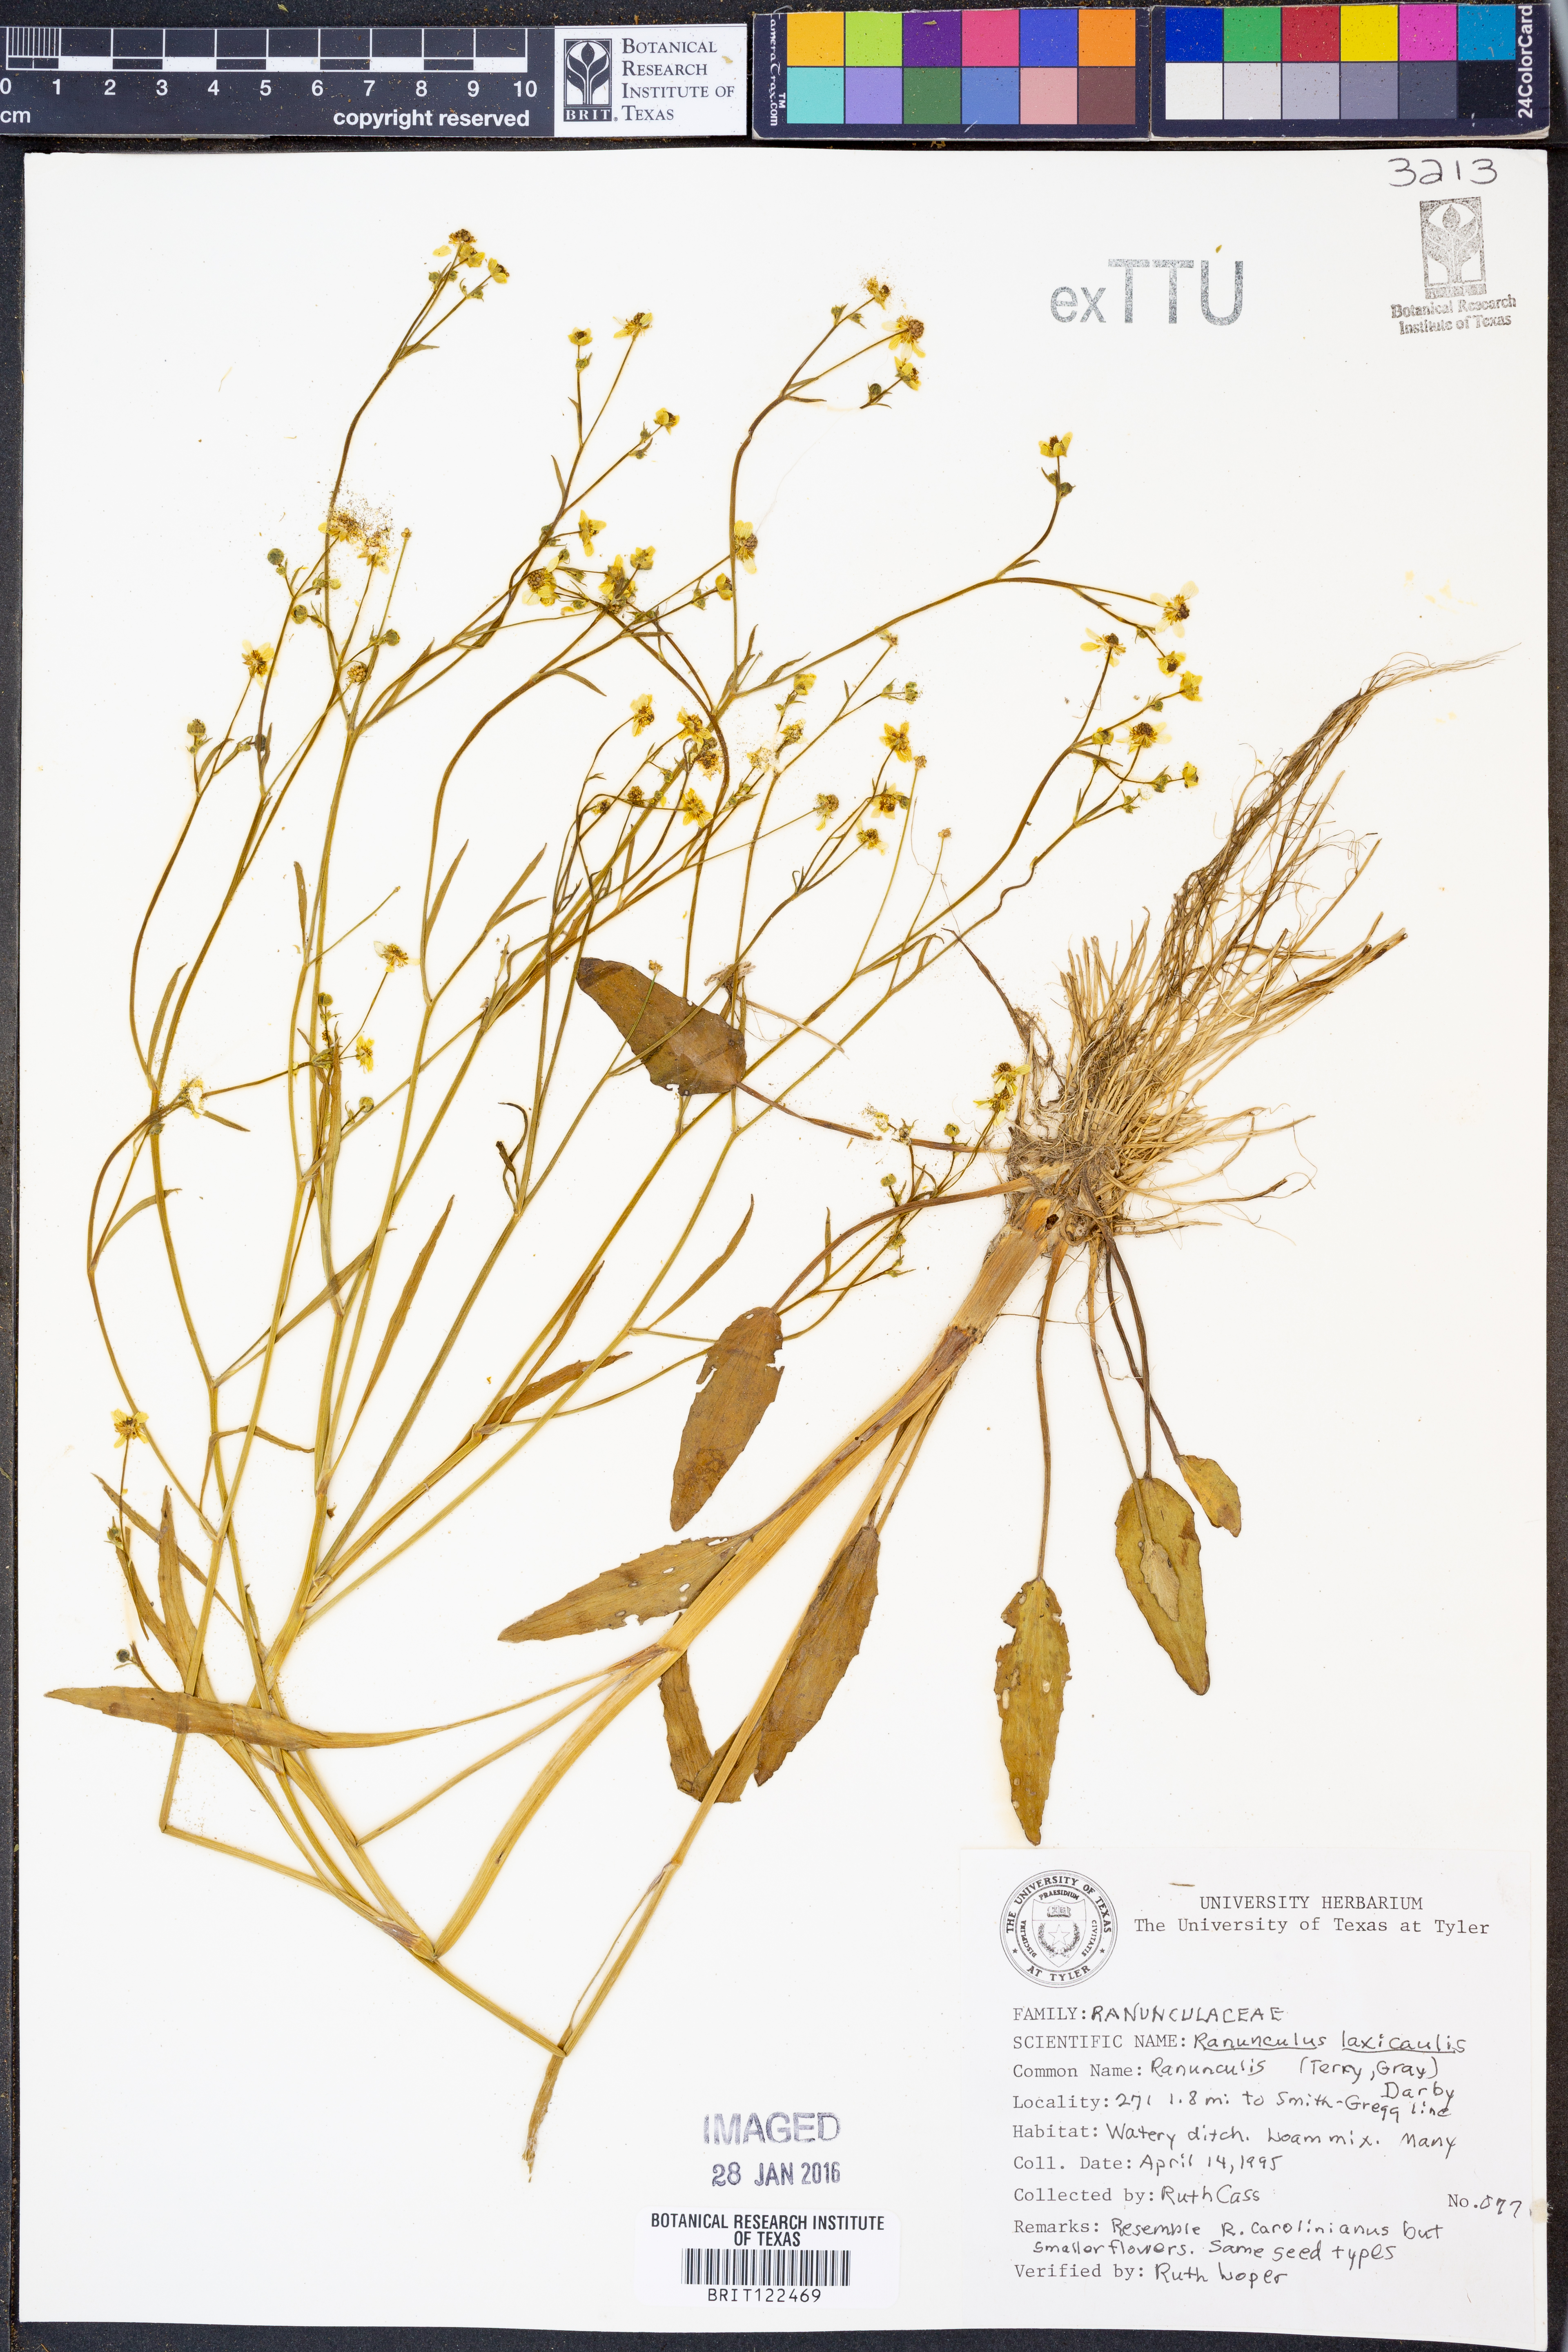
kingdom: Plantae
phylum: Tracheophyta
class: Magnoliopsida
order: Ranunculales
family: Ranunculaceae
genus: Ranunculus
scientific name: Ranunculus laxicaulis
